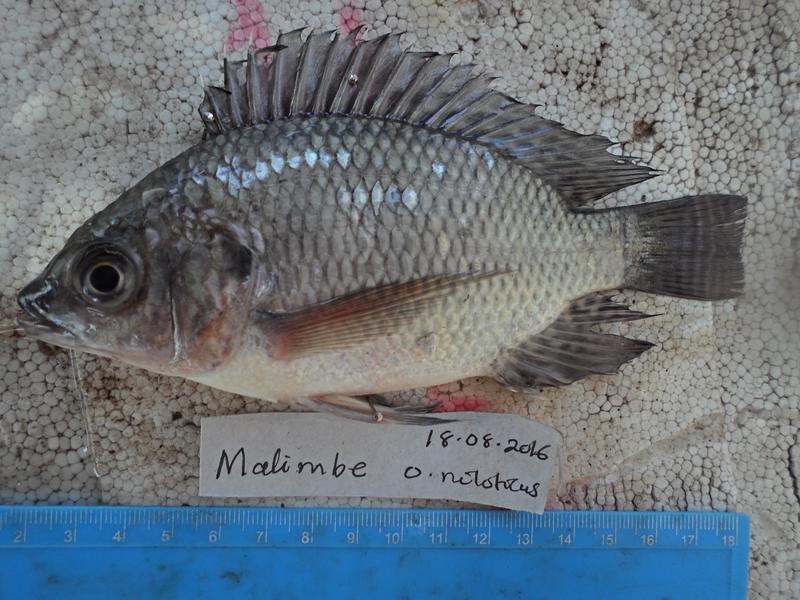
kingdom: Animalia
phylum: Chordata
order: Perciformes
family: Cichlidae
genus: Oreochromis
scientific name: Oreochromis niloticus
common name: Nile tilapia
